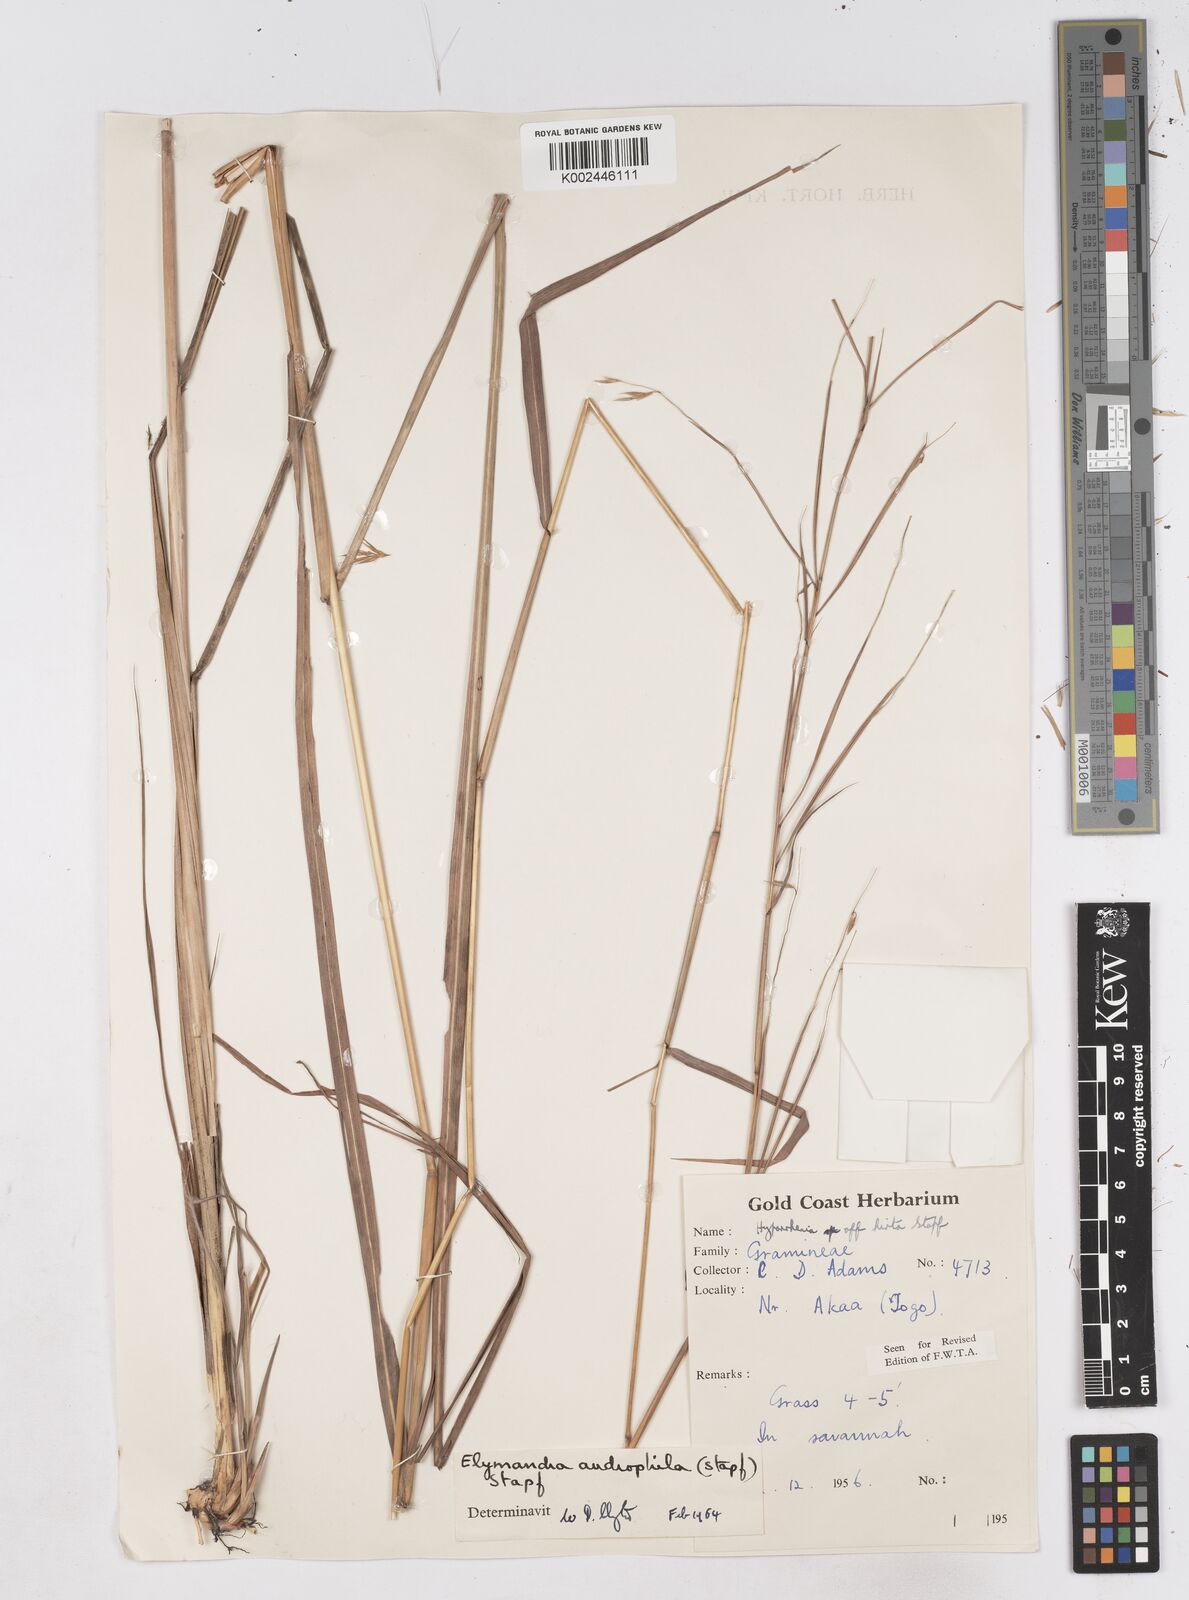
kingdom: Plantae
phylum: Tracheophyta
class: Liliopsida
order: Poales
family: Poaceae
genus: Elymandra
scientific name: Elymandra androphila
